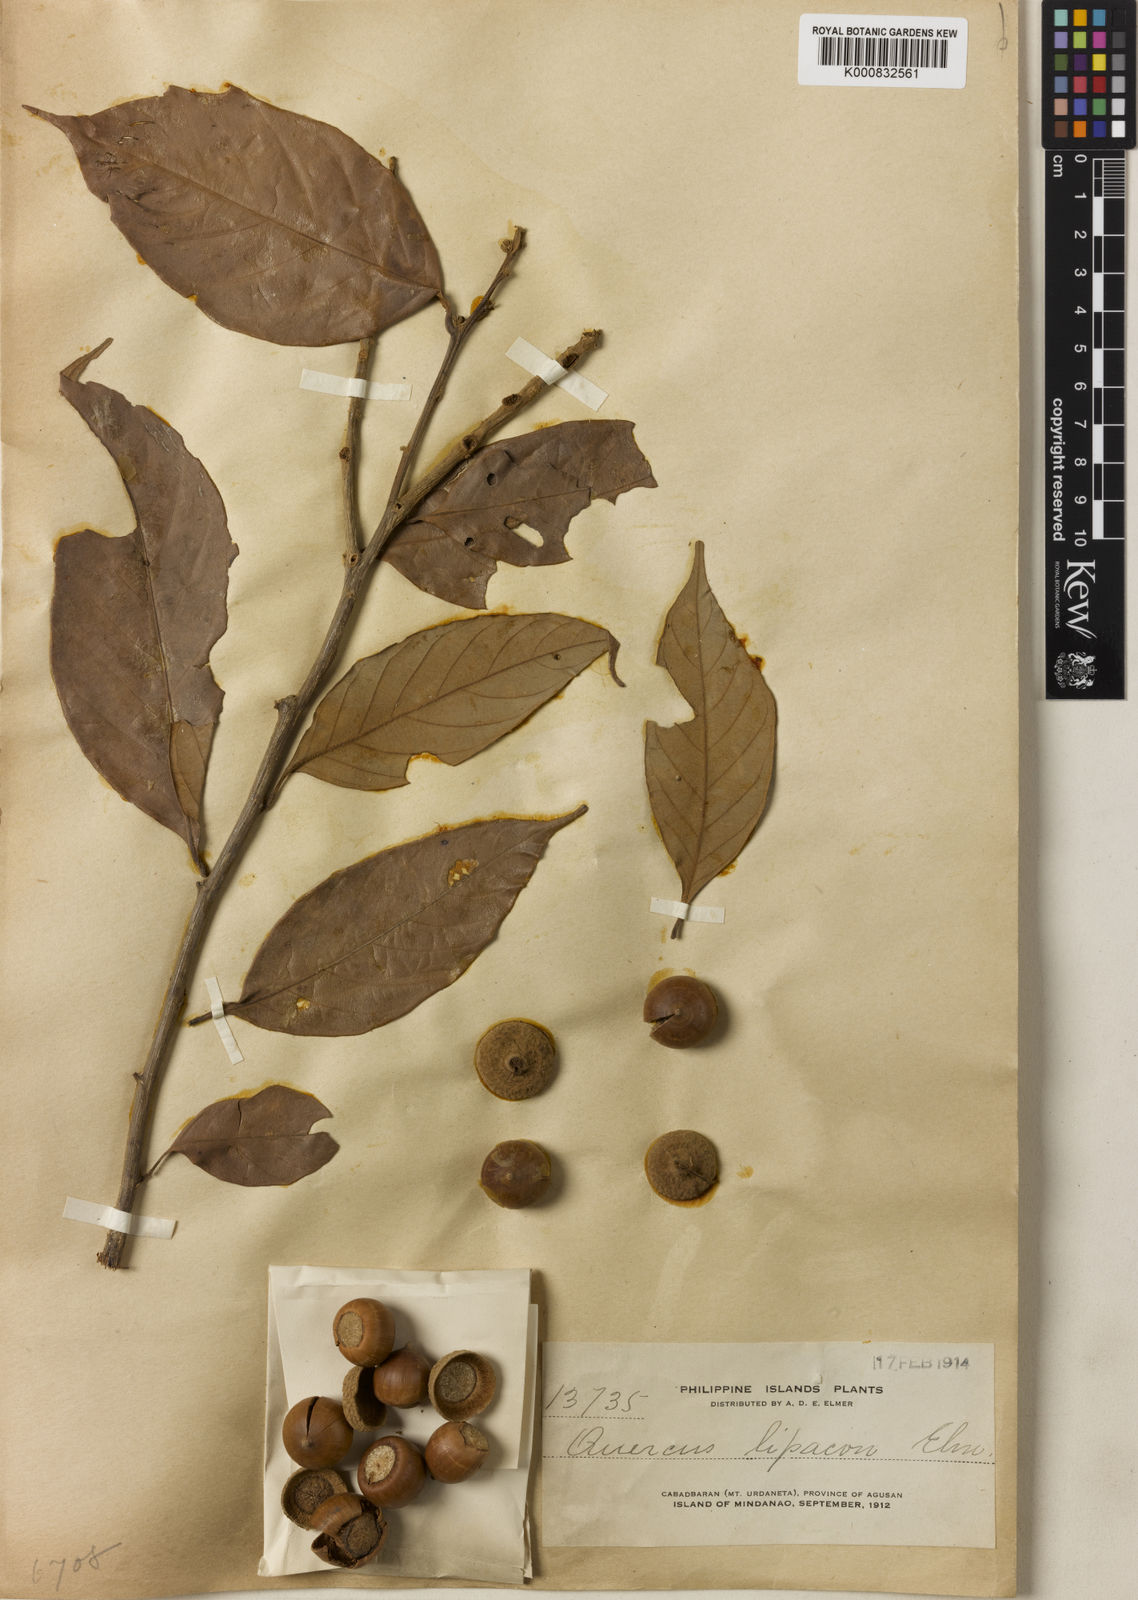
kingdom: Plantae
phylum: Tracheophyta
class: Magnoliopsida
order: Fagales
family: Fagaceae
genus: Lithocarpus
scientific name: Lithocarpus celebicus
